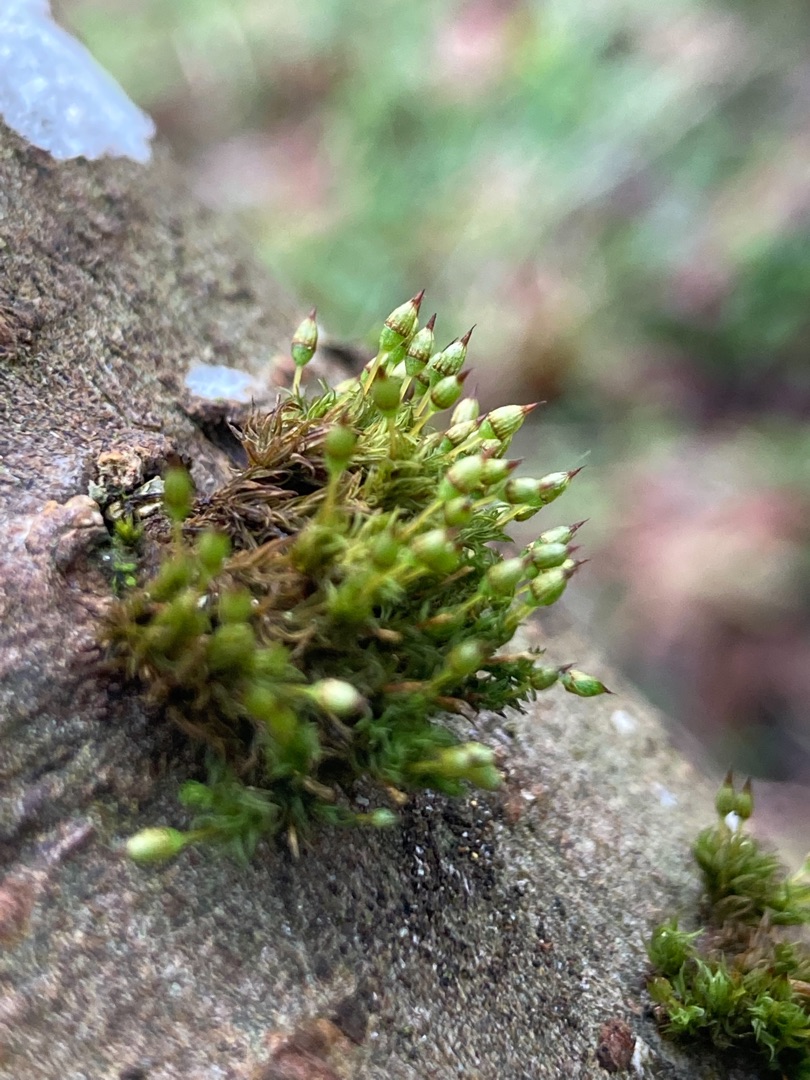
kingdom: Plantae
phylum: Bryophyta
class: Bryopsida
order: Orthotrichales
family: Orthotrichaceae
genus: Orthotrichum
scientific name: Orthotrichum pulchellum
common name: Smuk furehætte
